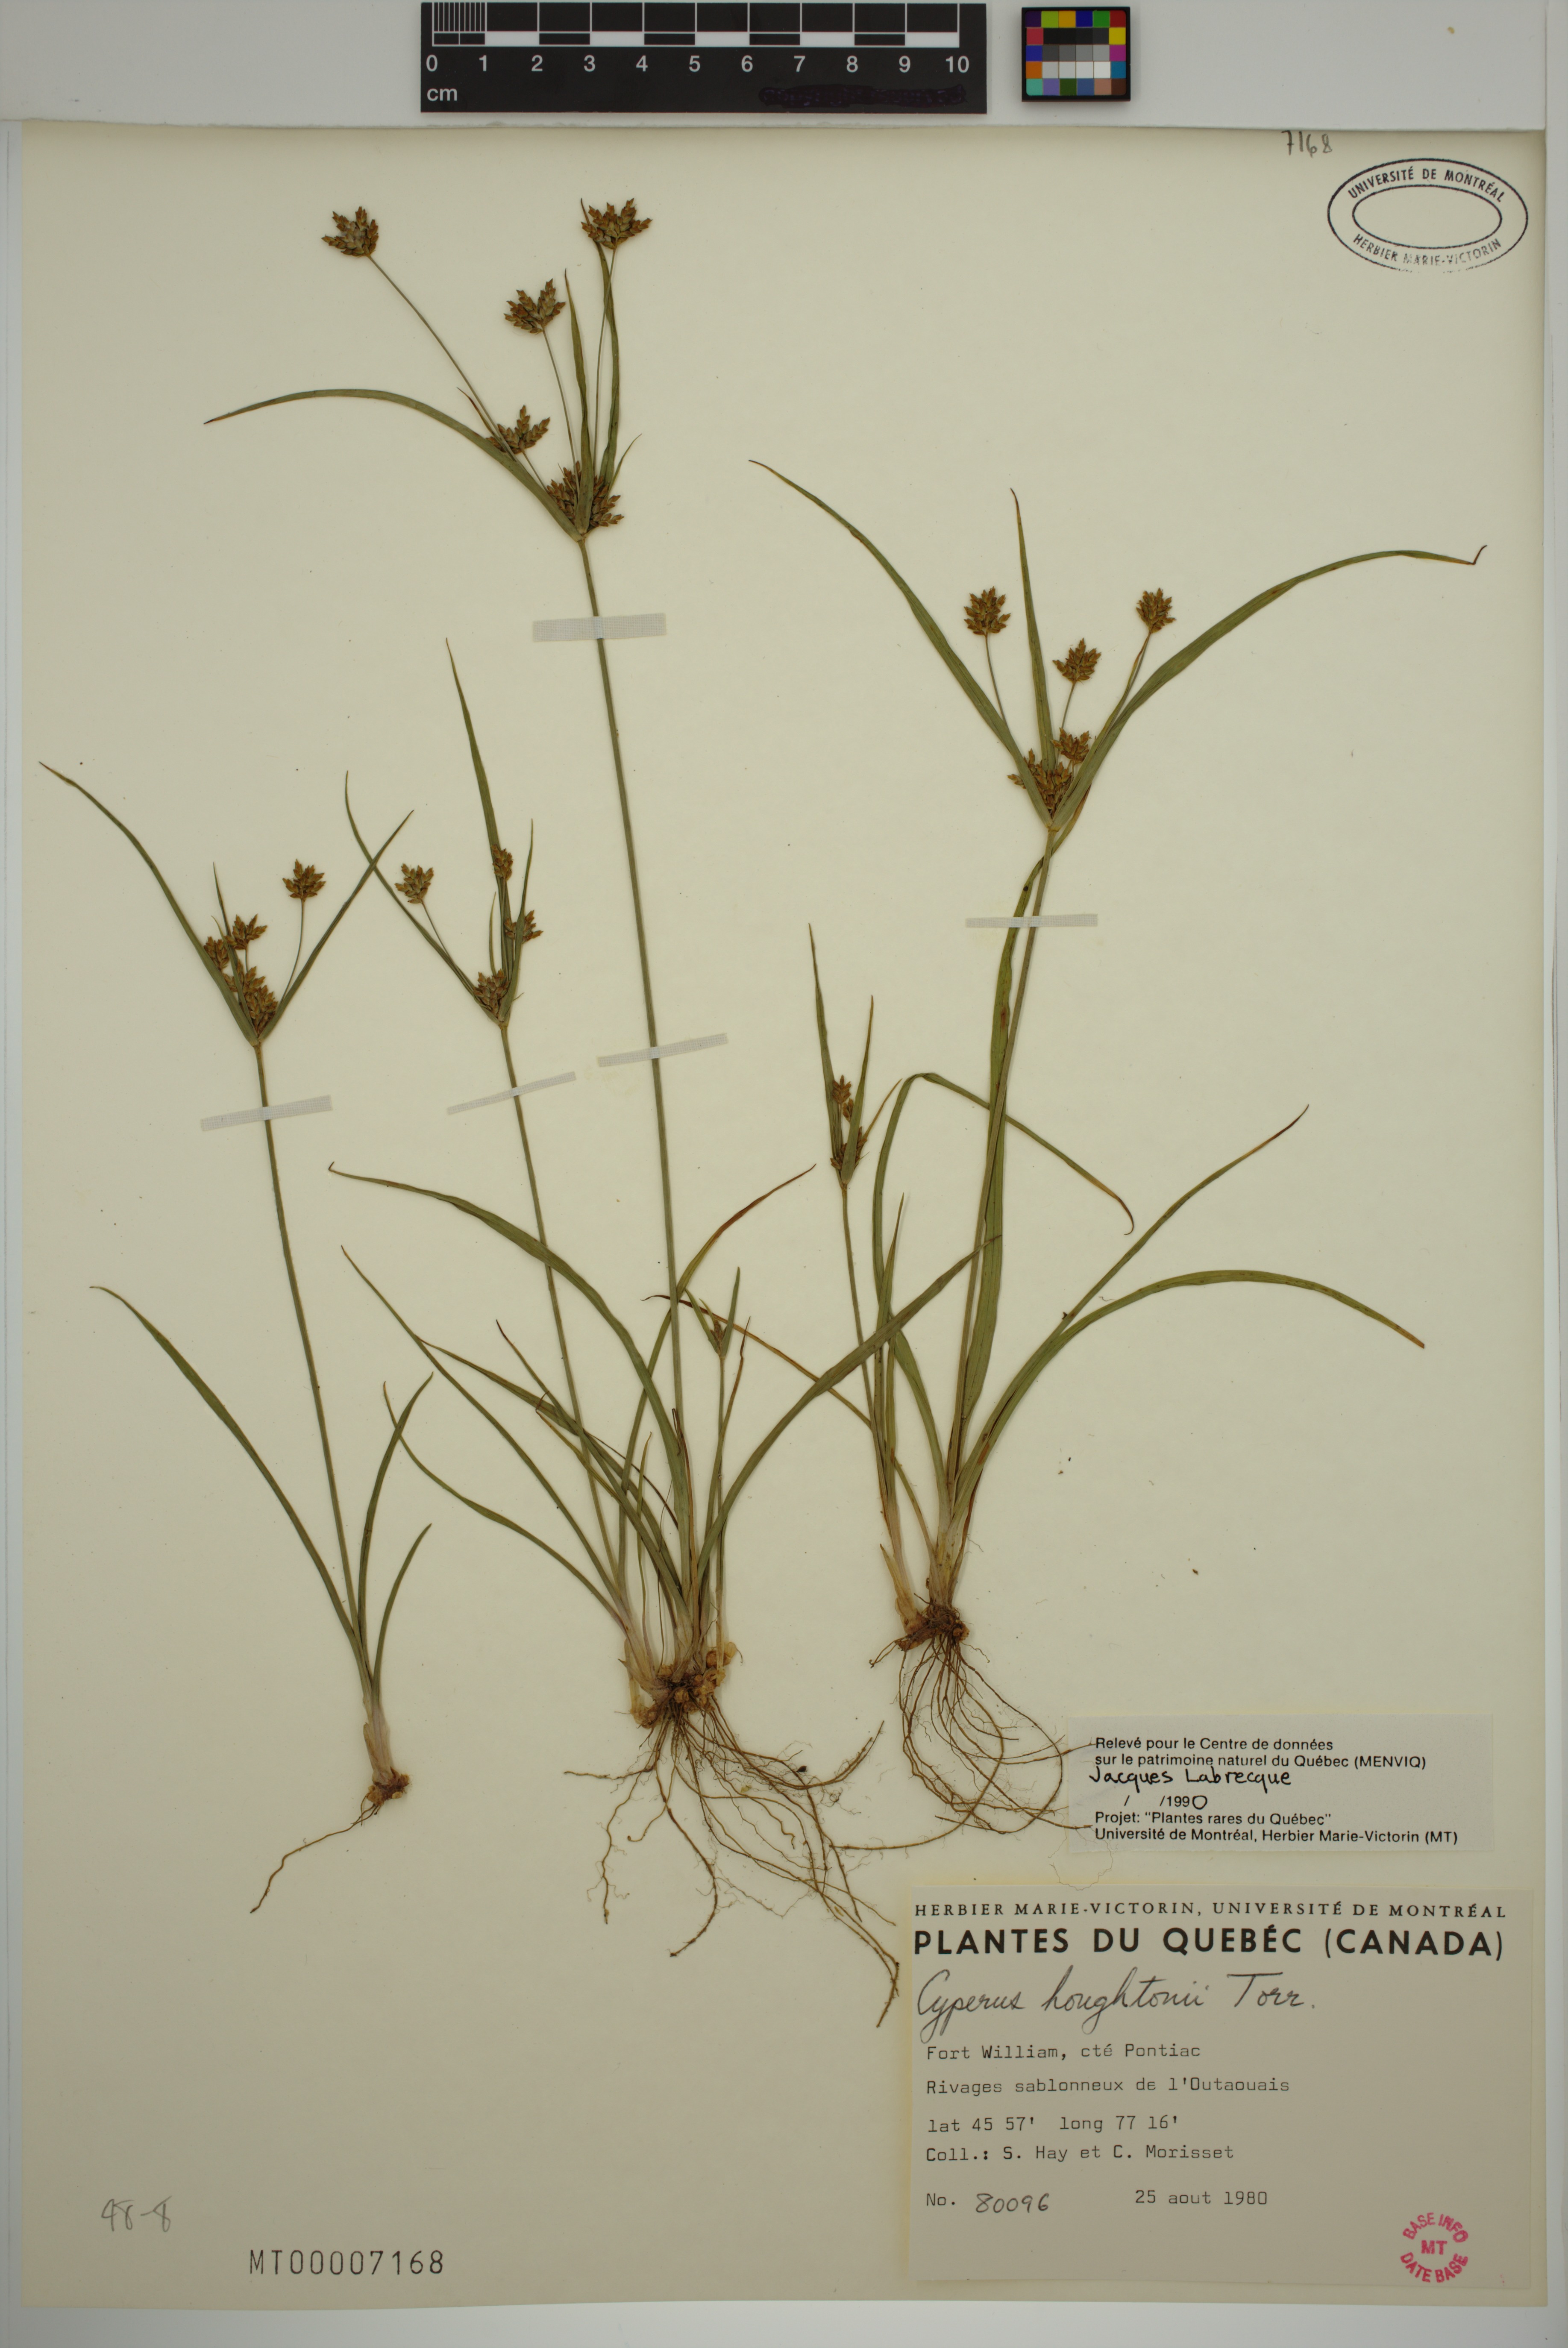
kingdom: Plantae
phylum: Tracheophyta
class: Liliopsida
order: Poales
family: Cyperaceae
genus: Cyperus
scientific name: Cyperus houghtonii
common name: Houghton's cyperus
